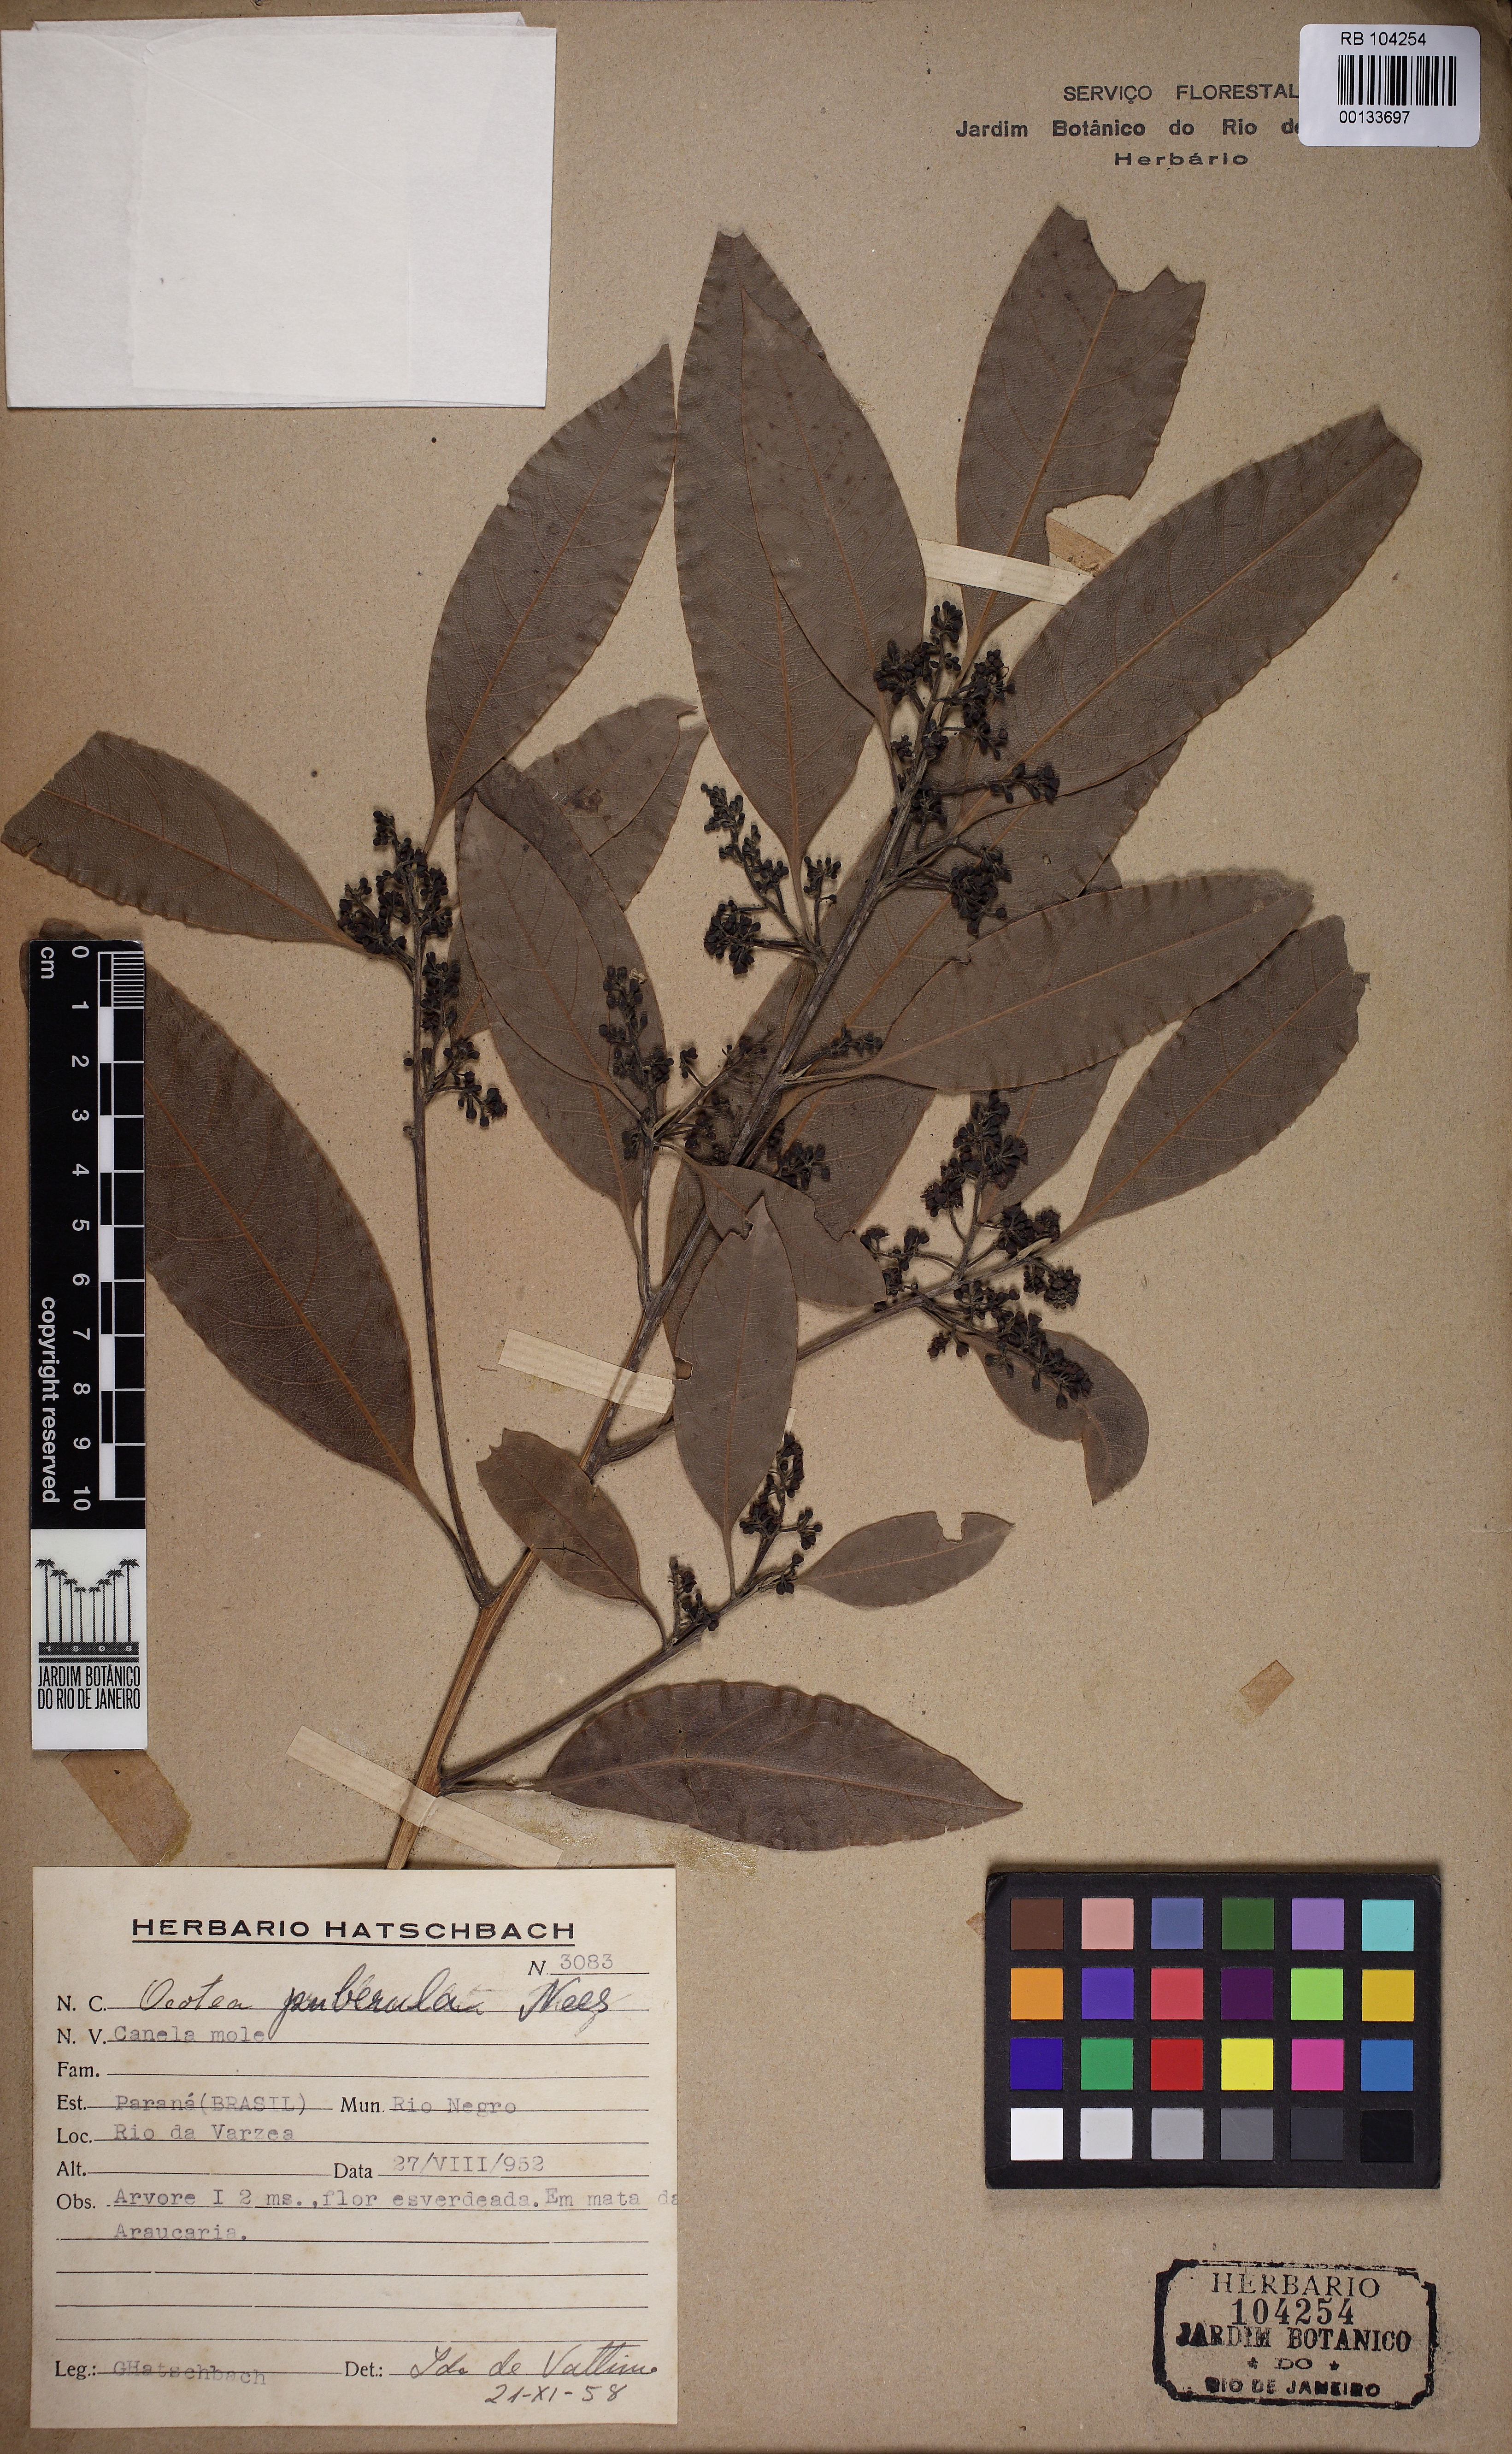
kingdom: Plantae
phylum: Tracheophyta
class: Magnoliopsida
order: Laurales
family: Lauraceae
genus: Ocotea
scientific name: Ocotea puberula
